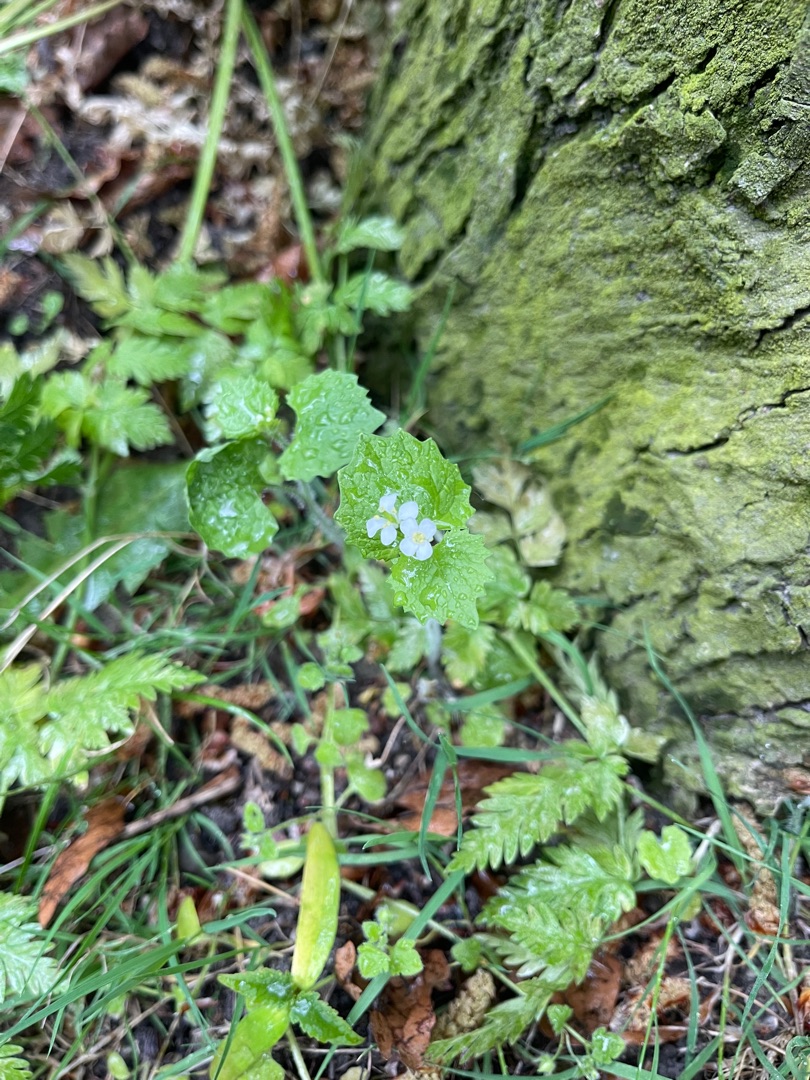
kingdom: Plantae
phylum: Tracheophyta
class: Magnoliopsida
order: Brassicales
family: Brassicaceae
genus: Alliaria
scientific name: Alliaria petiolata
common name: Løgkarse
